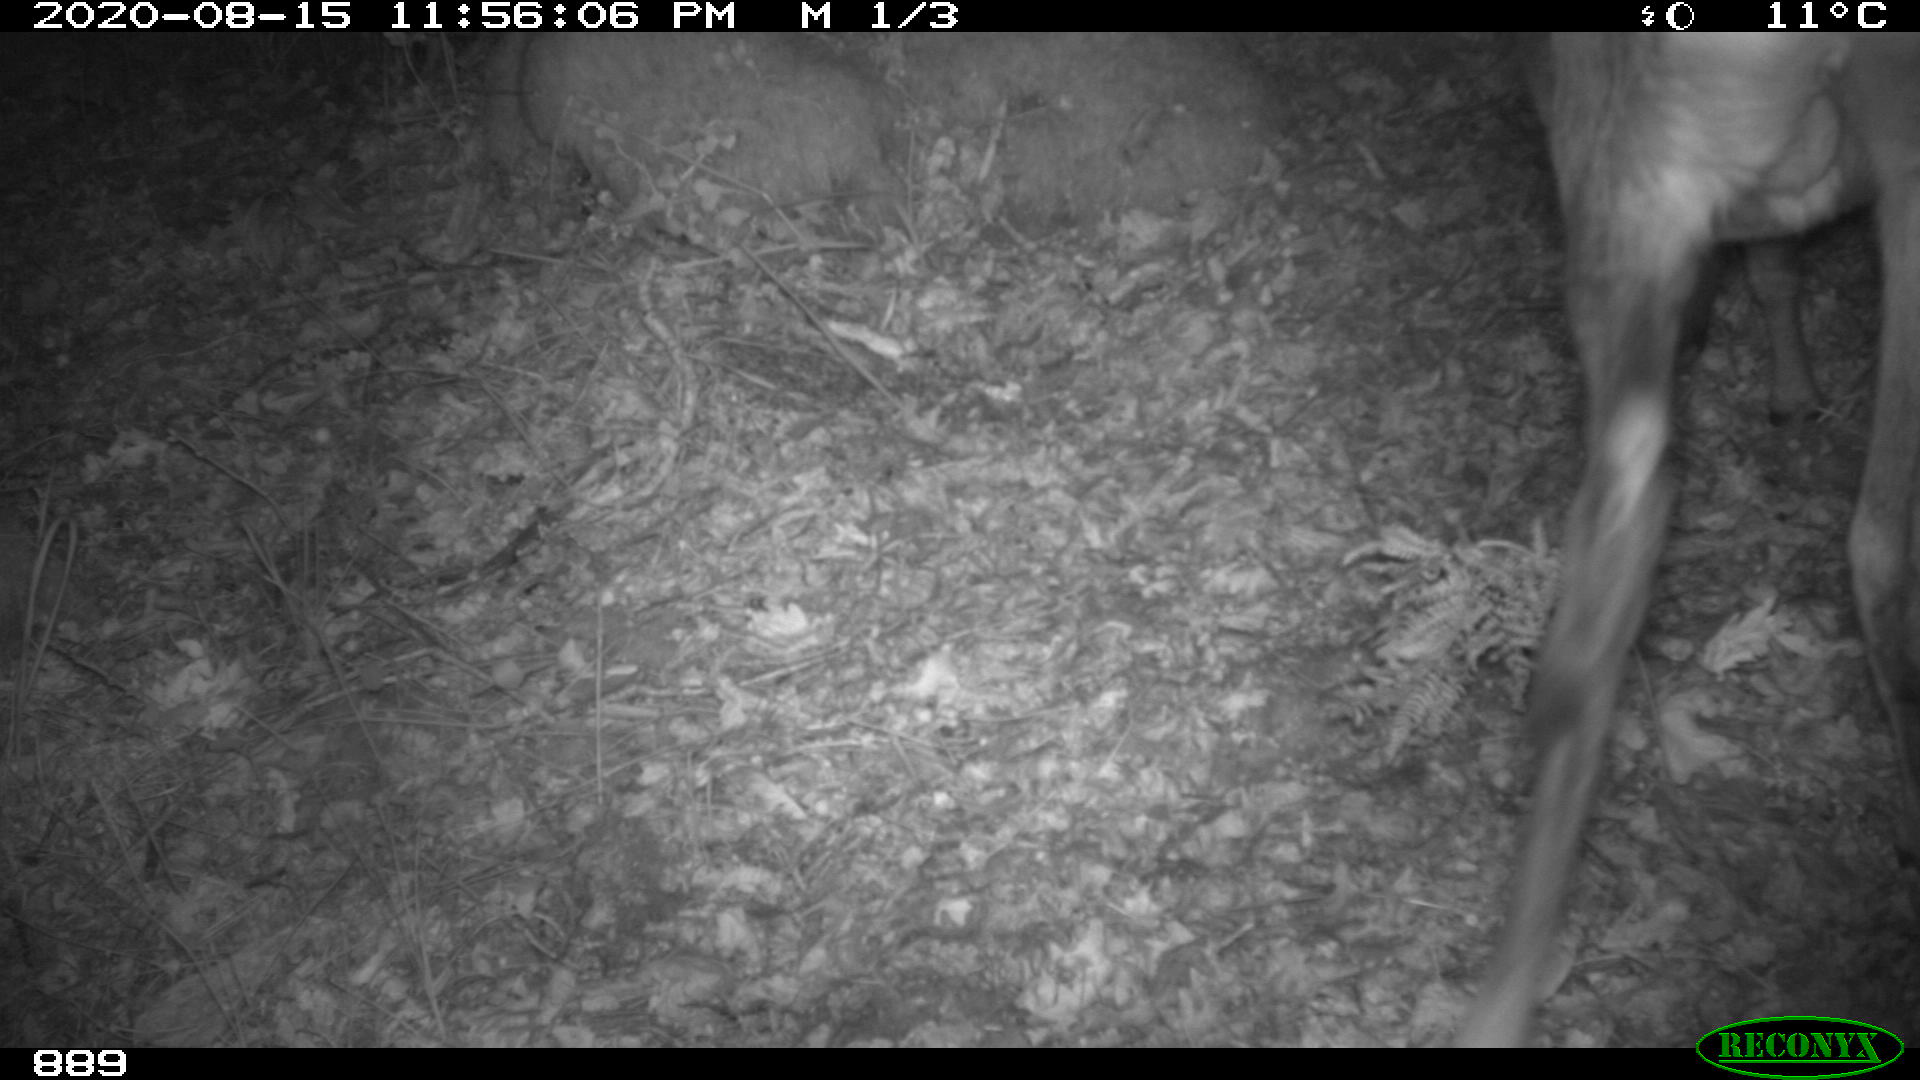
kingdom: Animalia
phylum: Chordata
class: Mammalia
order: Artiodactyla
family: Cervidae
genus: Capreolus
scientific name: Capreolus capreolus
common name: Western roe deer
